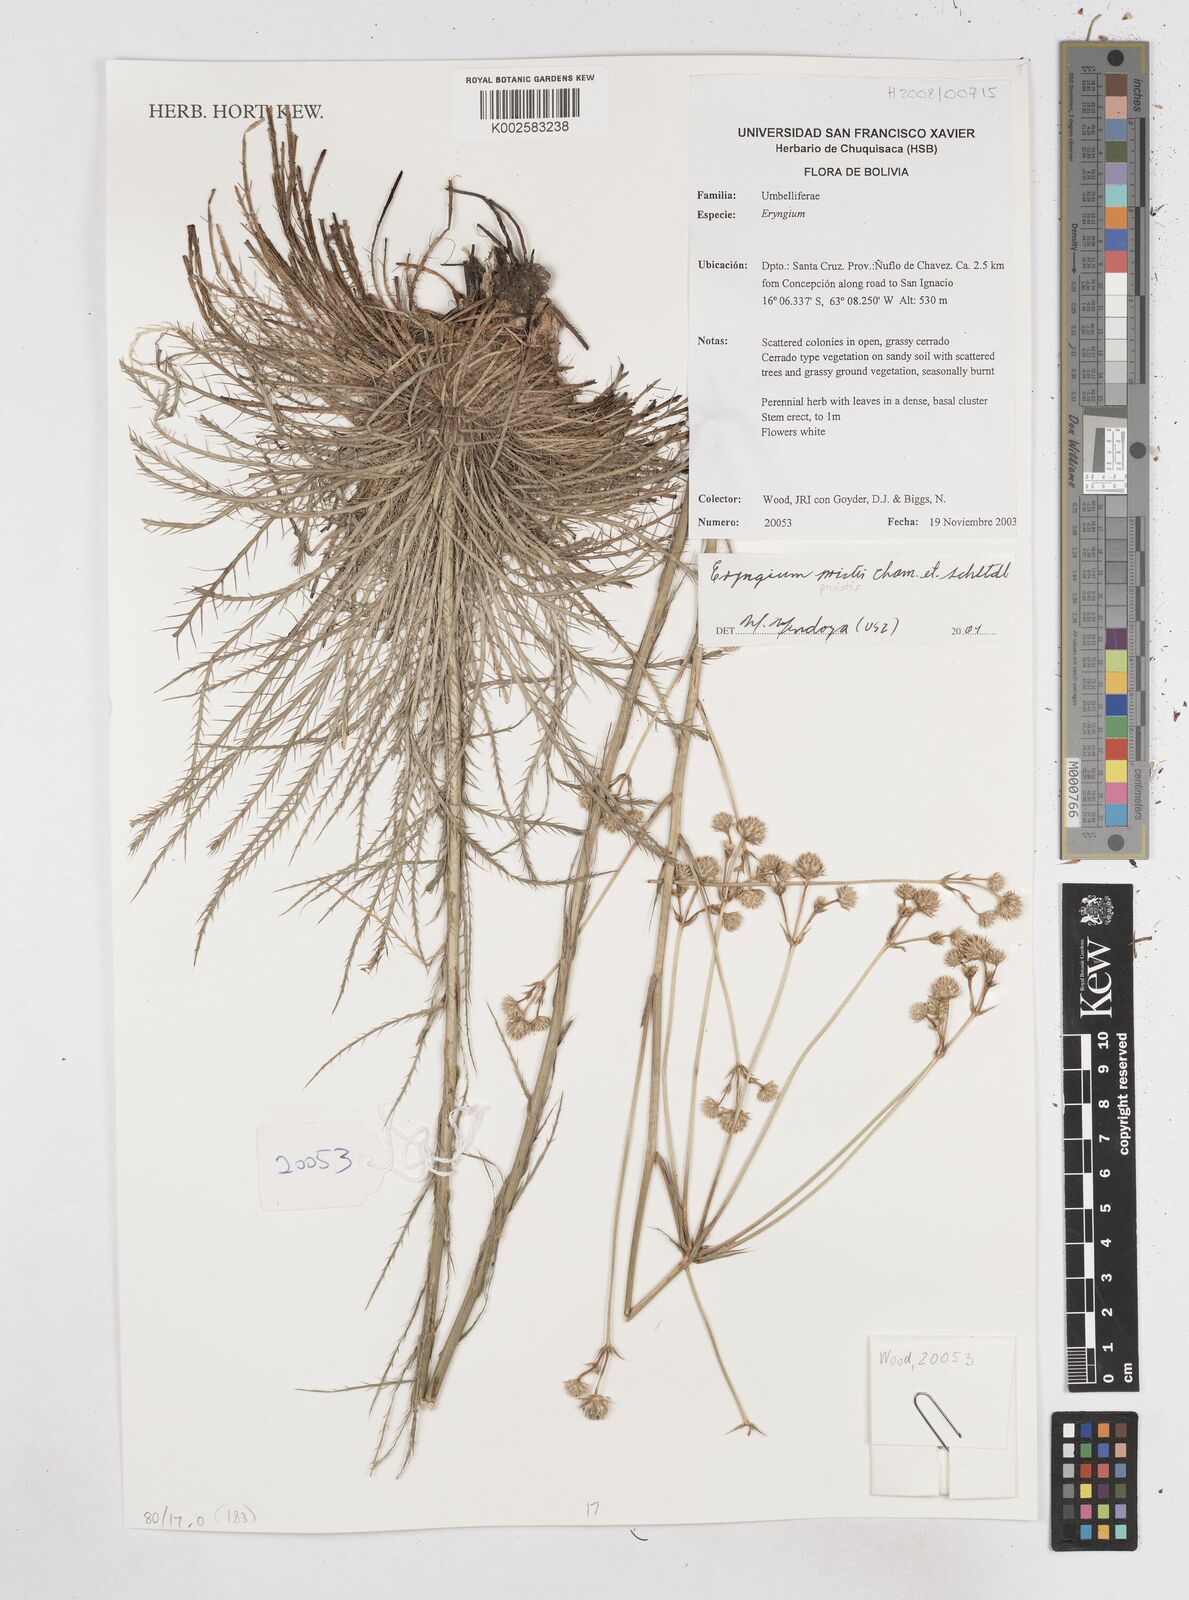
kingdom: Plantae
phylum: Tracheophyta
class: Magnoliopsida
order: Apiales
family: Apiaceae
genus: Eryngium
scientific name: Eryngium pristis
